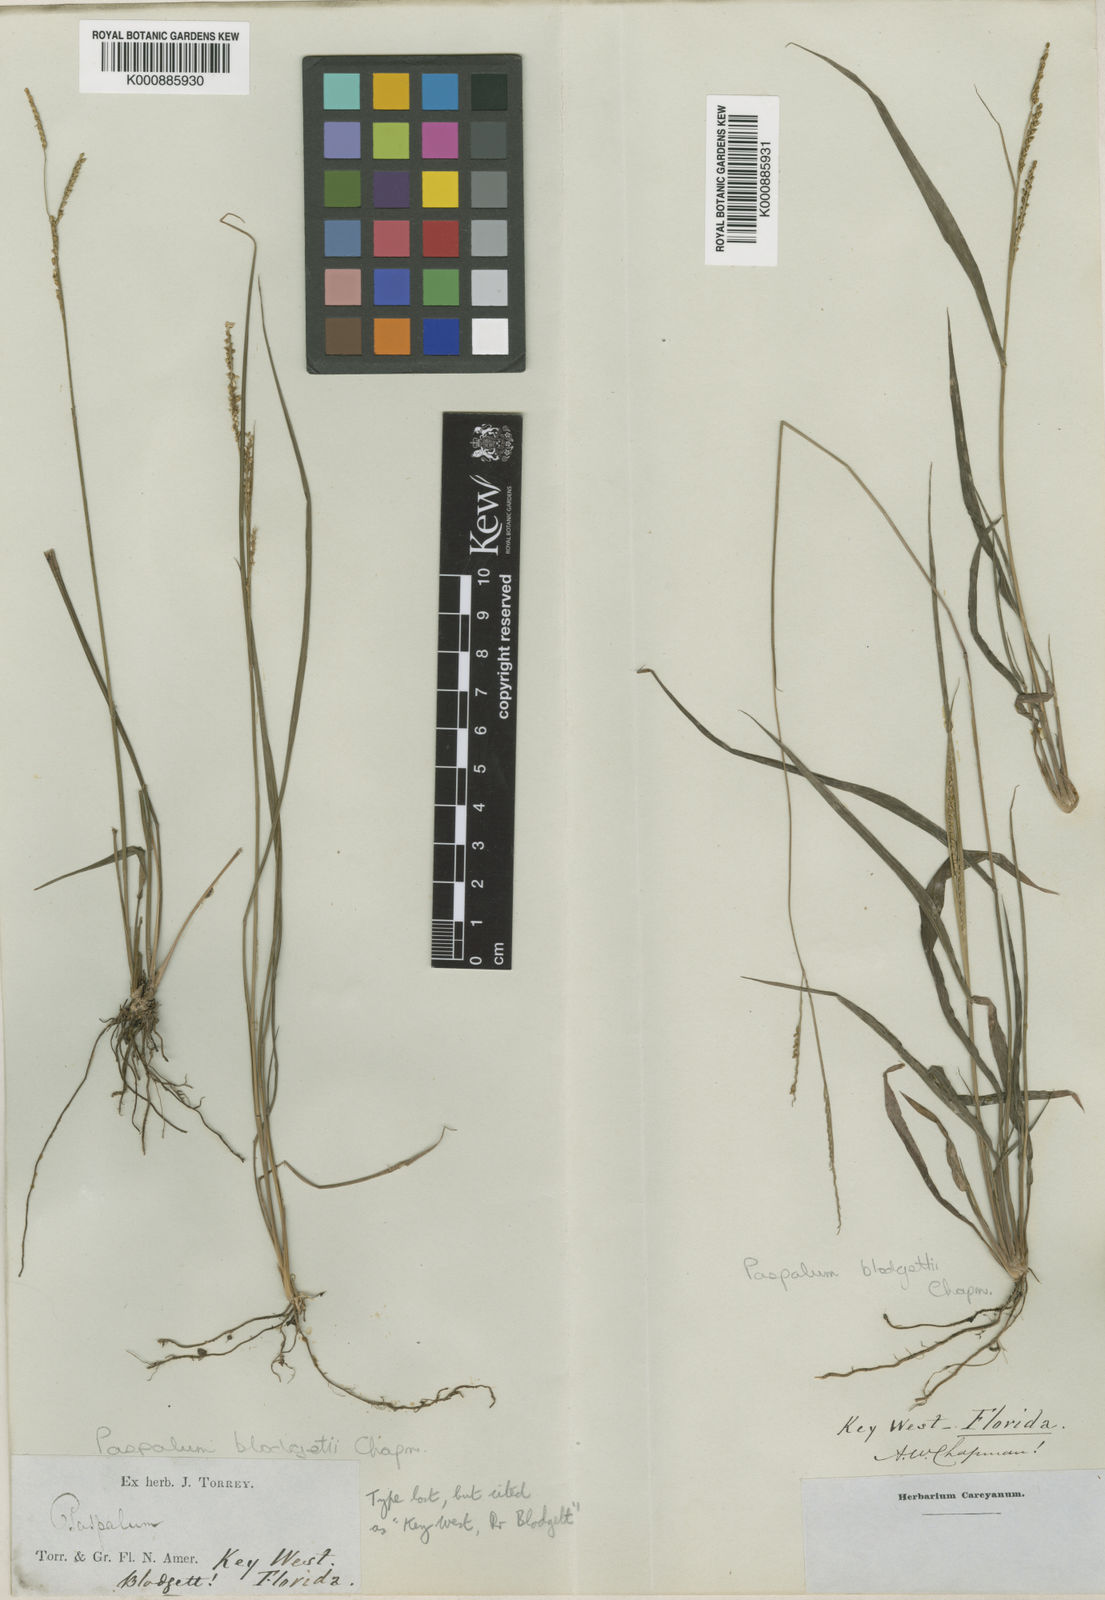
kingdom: Plantae
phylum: Tracheophyta
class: Liliopsida
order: Poales
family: Poaceae
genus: Paspalum
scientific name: Paspalum blodgettii
